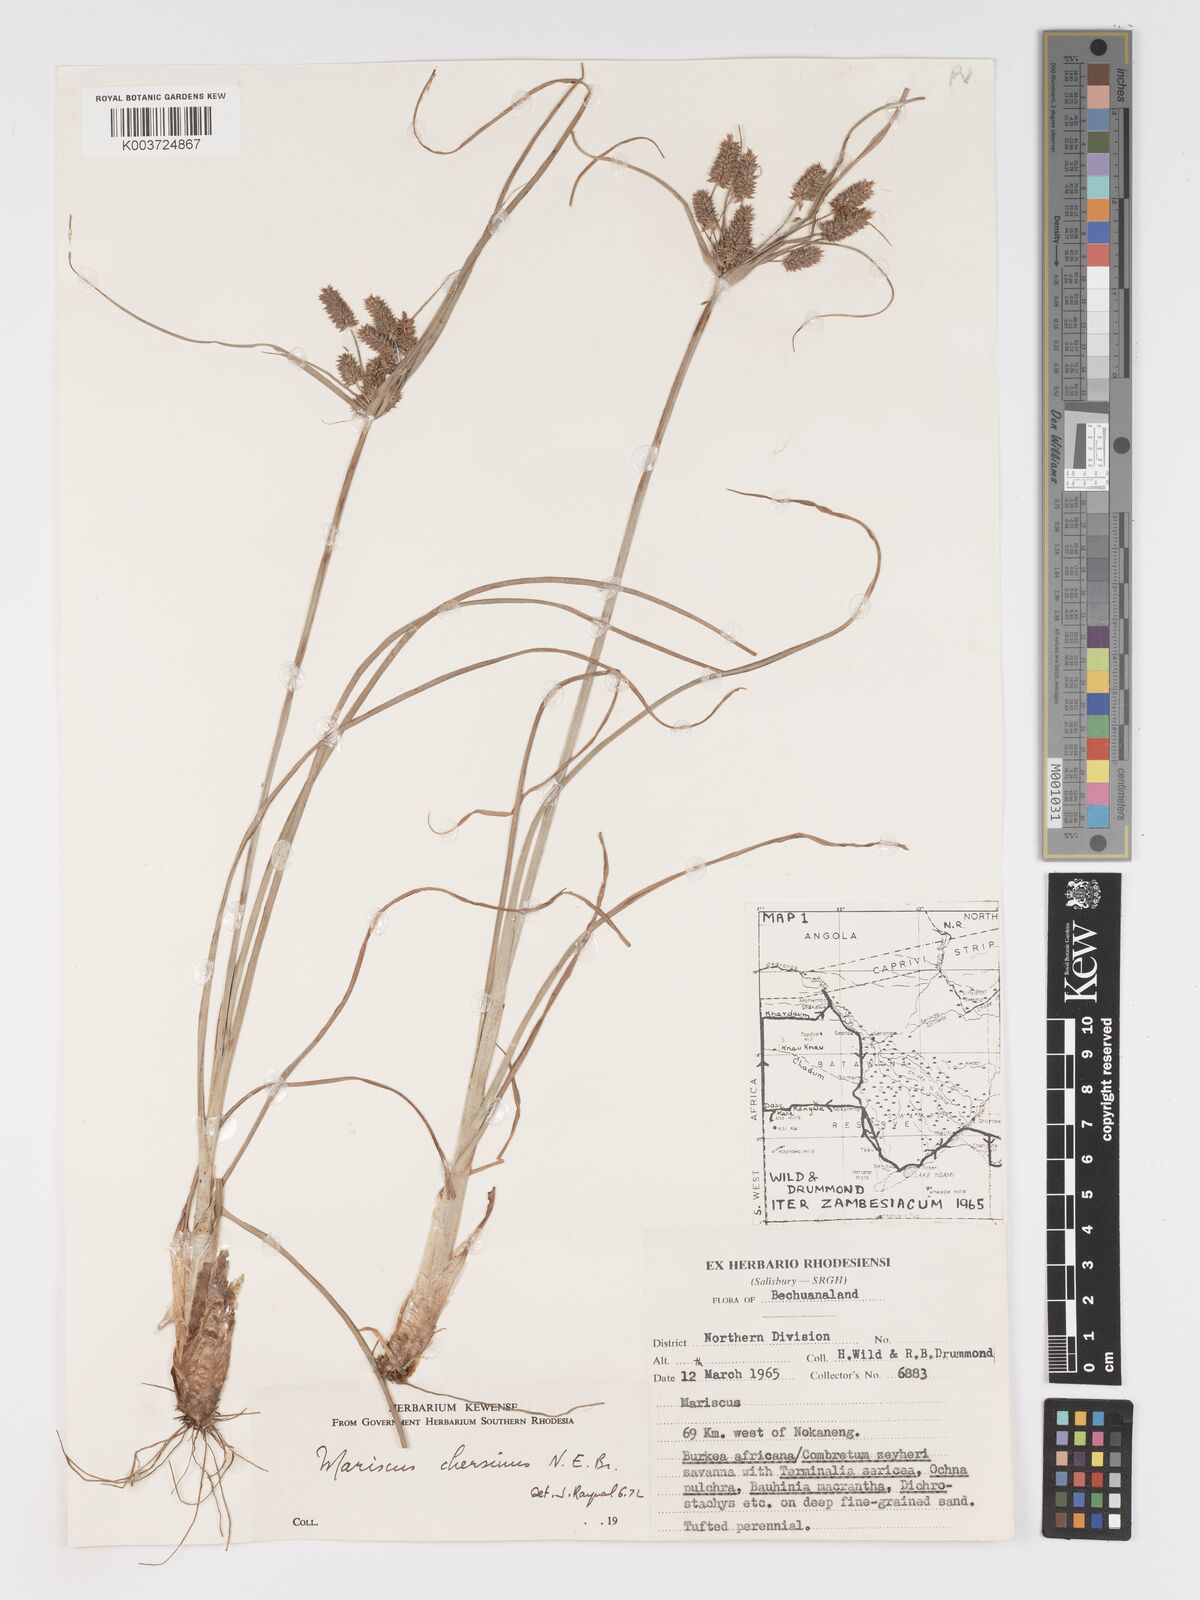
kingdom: Plantae
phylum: Tracheophyta
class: Liliopsida
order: Poales
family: Cyperaceae
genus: Cyperus
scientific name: Cyperus chersinus
